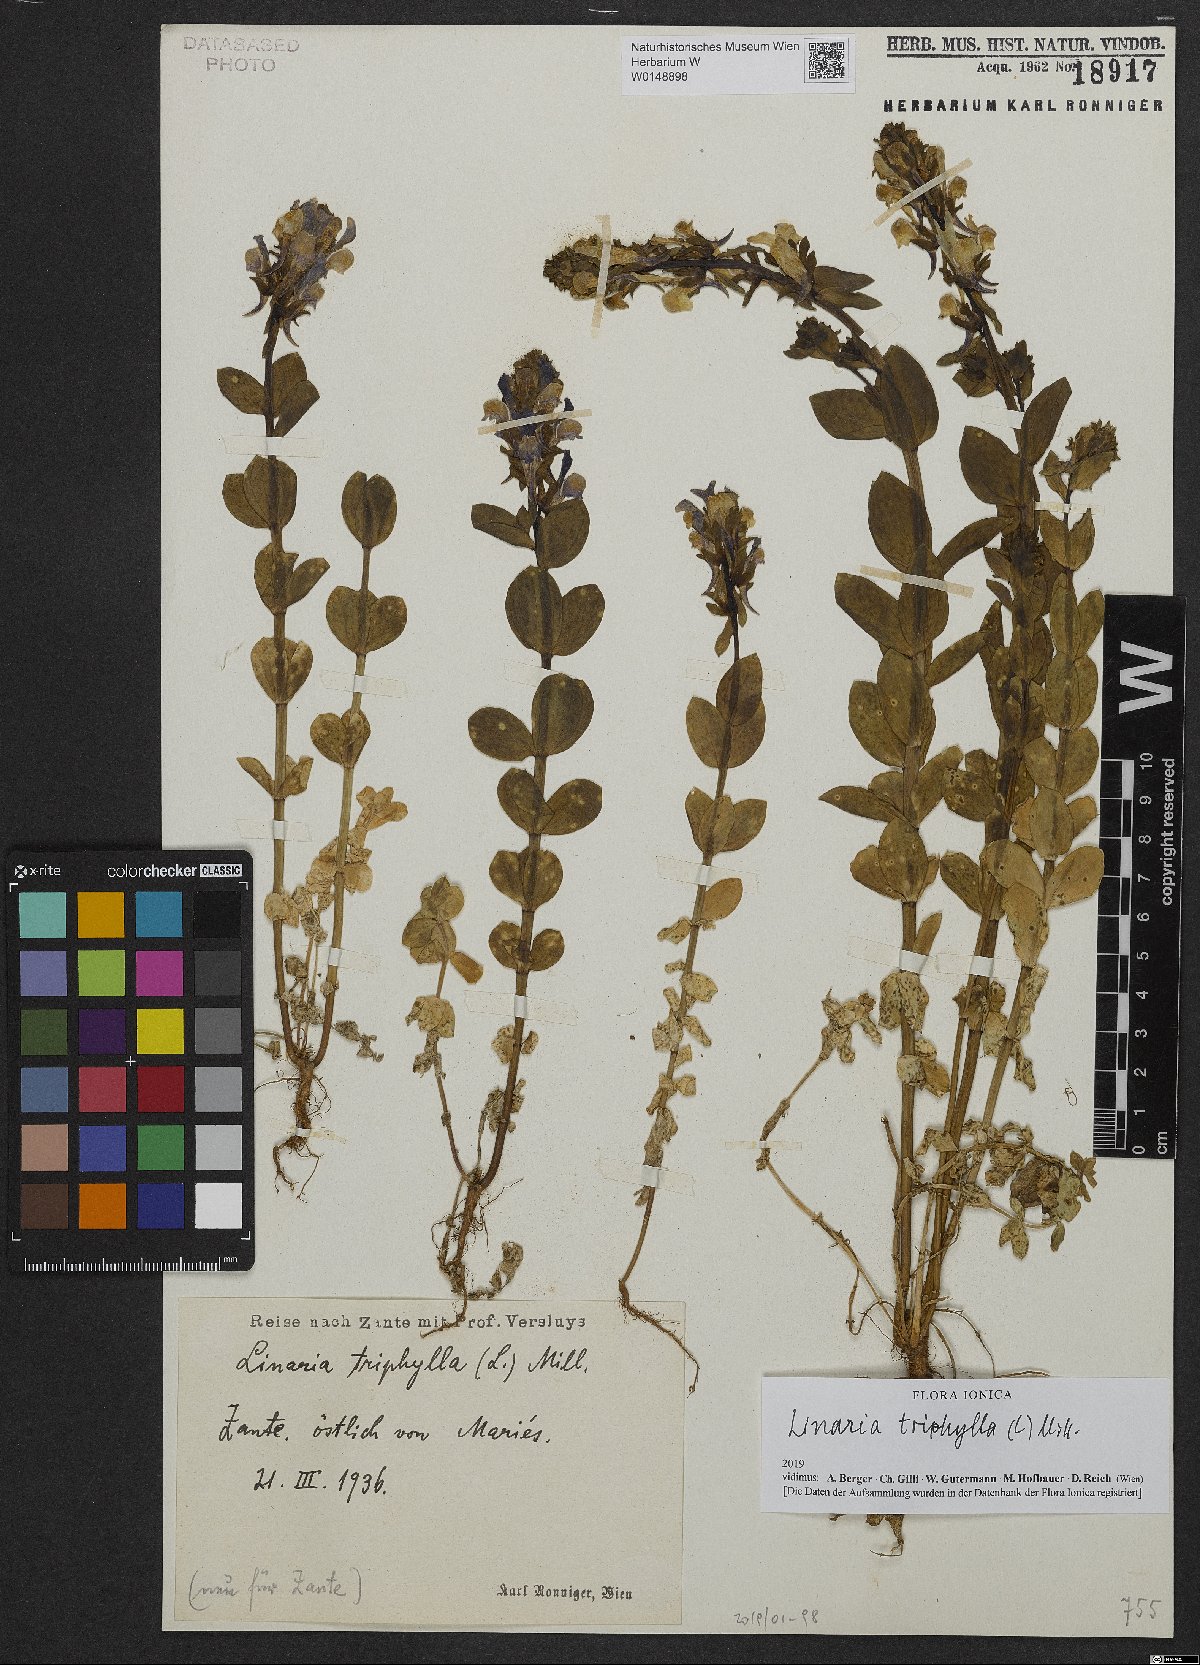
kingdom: Plantae
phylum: Tracheophyta
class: Magnoliopsida
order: Lamiales
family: Plantaginaceae
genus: Linaria
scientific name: Linaria triphylla
